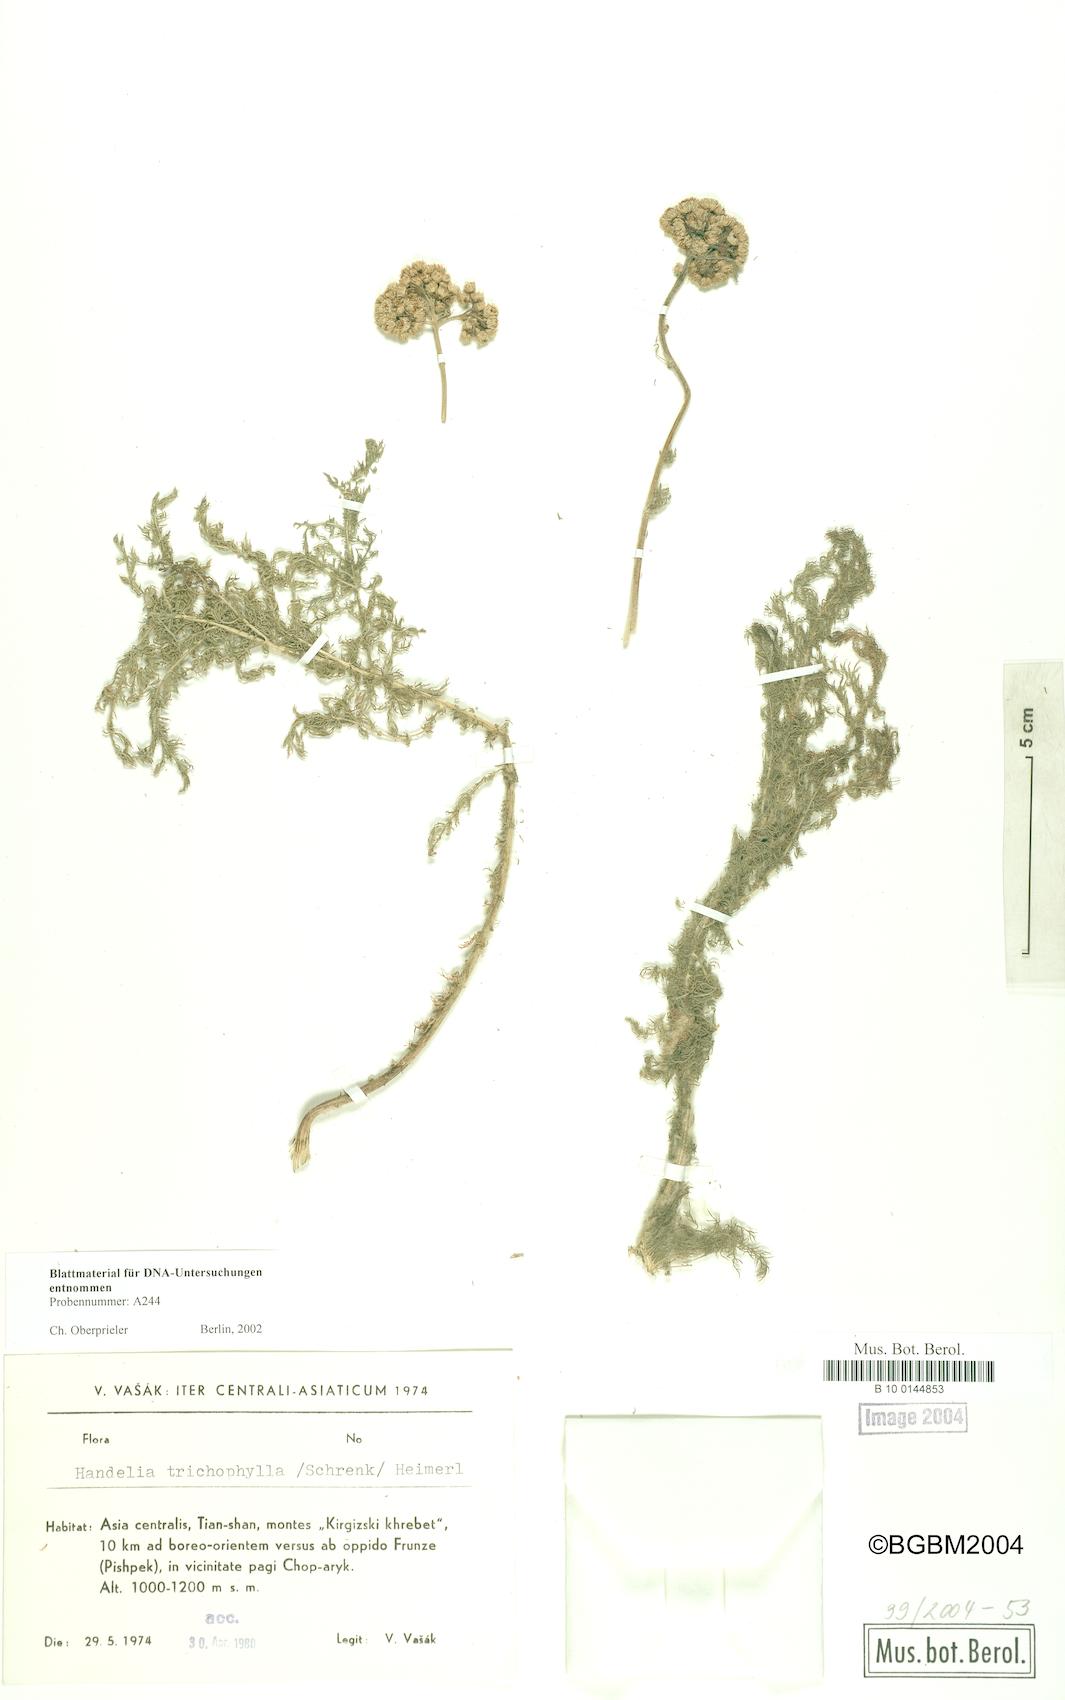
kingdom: Plantae
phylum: Tracheophyta
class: Magnoliopsida
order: Asterales
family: Asteraceae
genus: Handelia
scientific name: Handelia trichophylla
